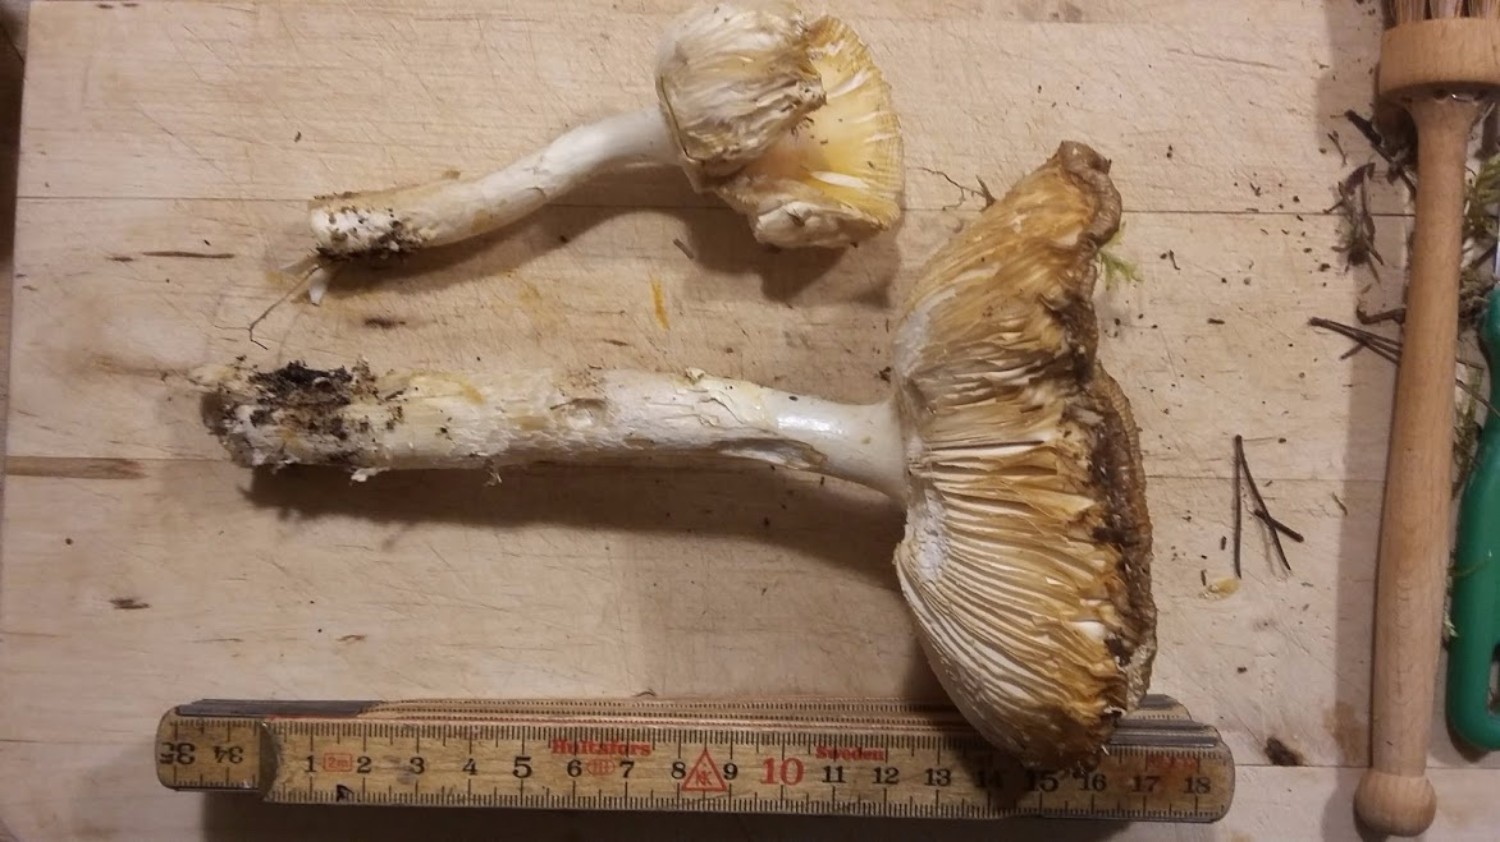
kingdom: Fungi
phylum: Basidiomycota
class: Agaricomycetes
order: Agaricales
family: Amanitaceae
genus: Amanita
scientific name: Amanita gemmata
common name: okkergul fluesvamp
